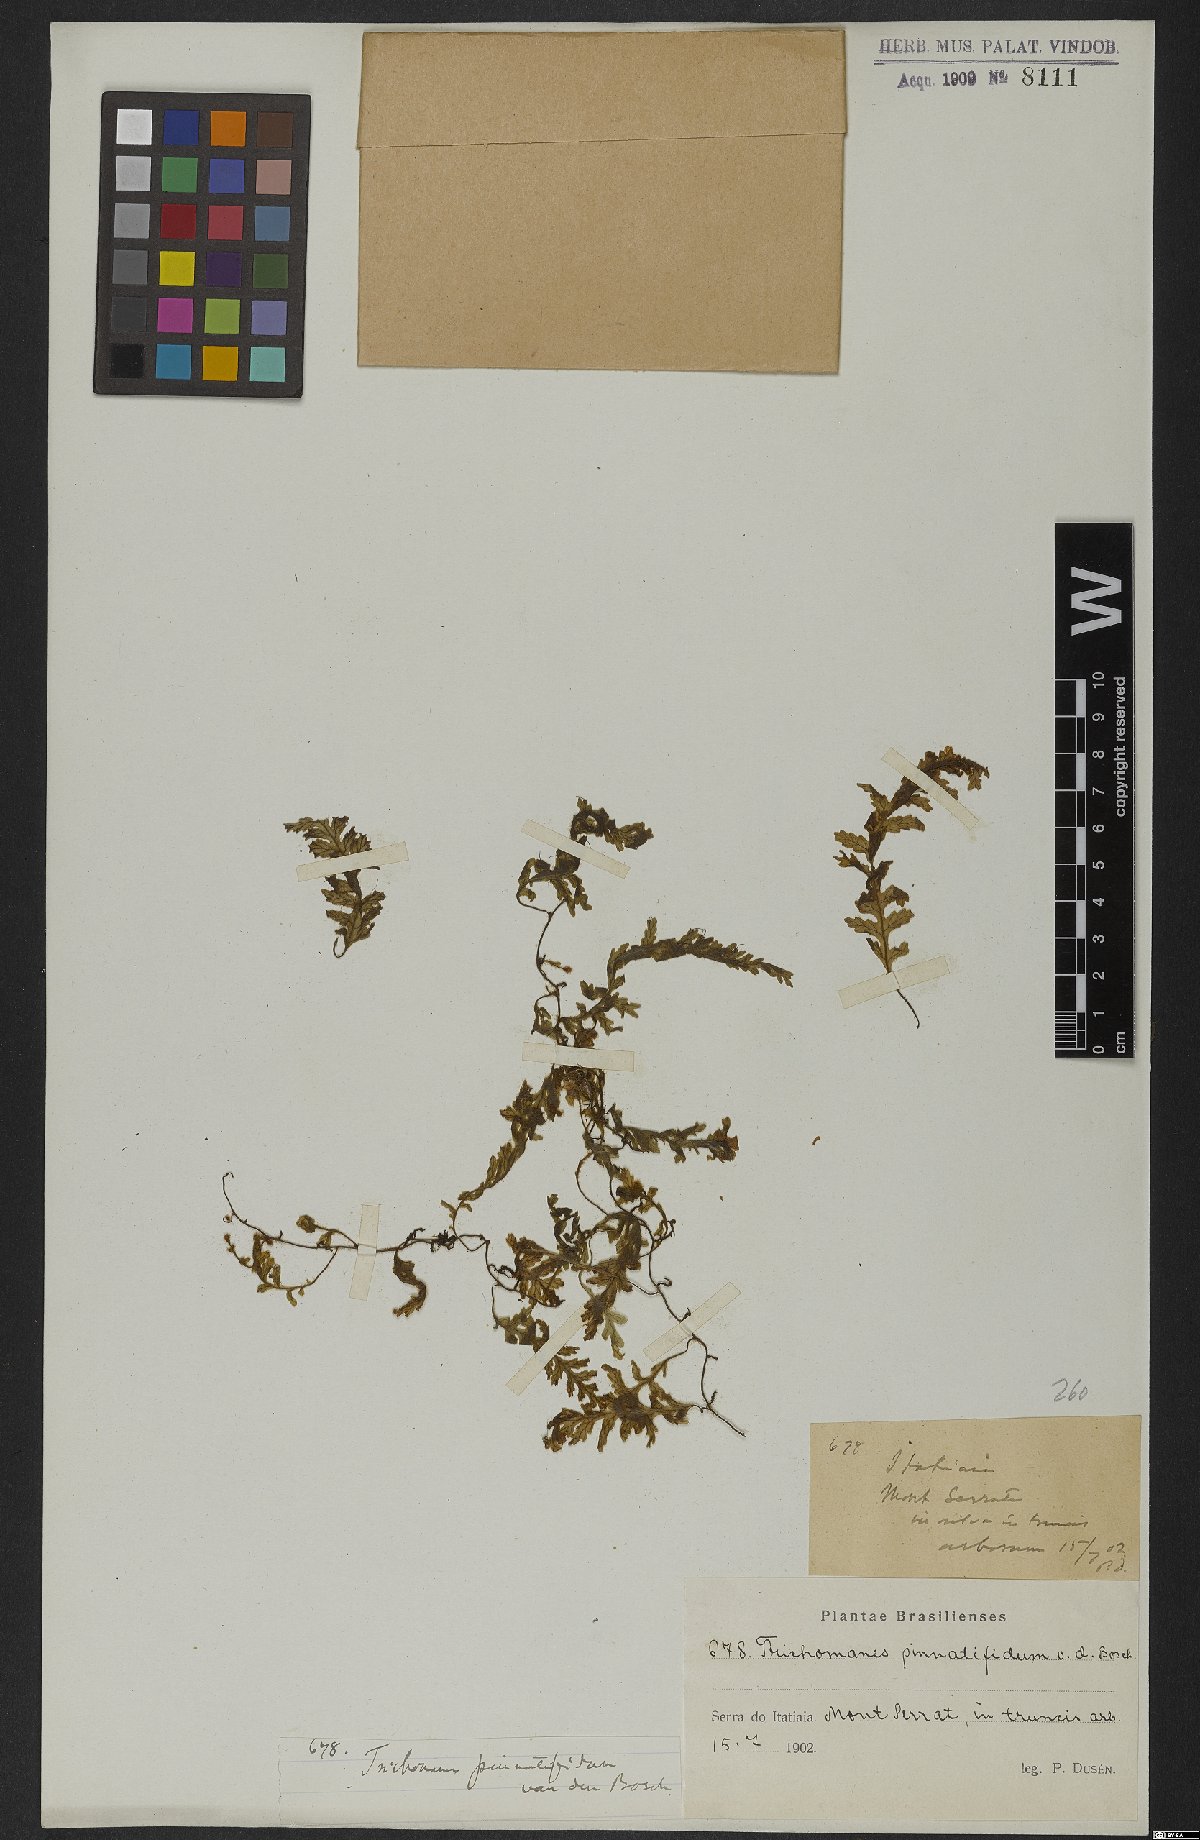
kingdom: Plantae
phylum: Tracheophyta
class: Polypodiopsida
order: Hymenophyllales
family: Hymenophyllaceae
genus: Trichomanes
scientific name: Trichomanes pinnatifidum
